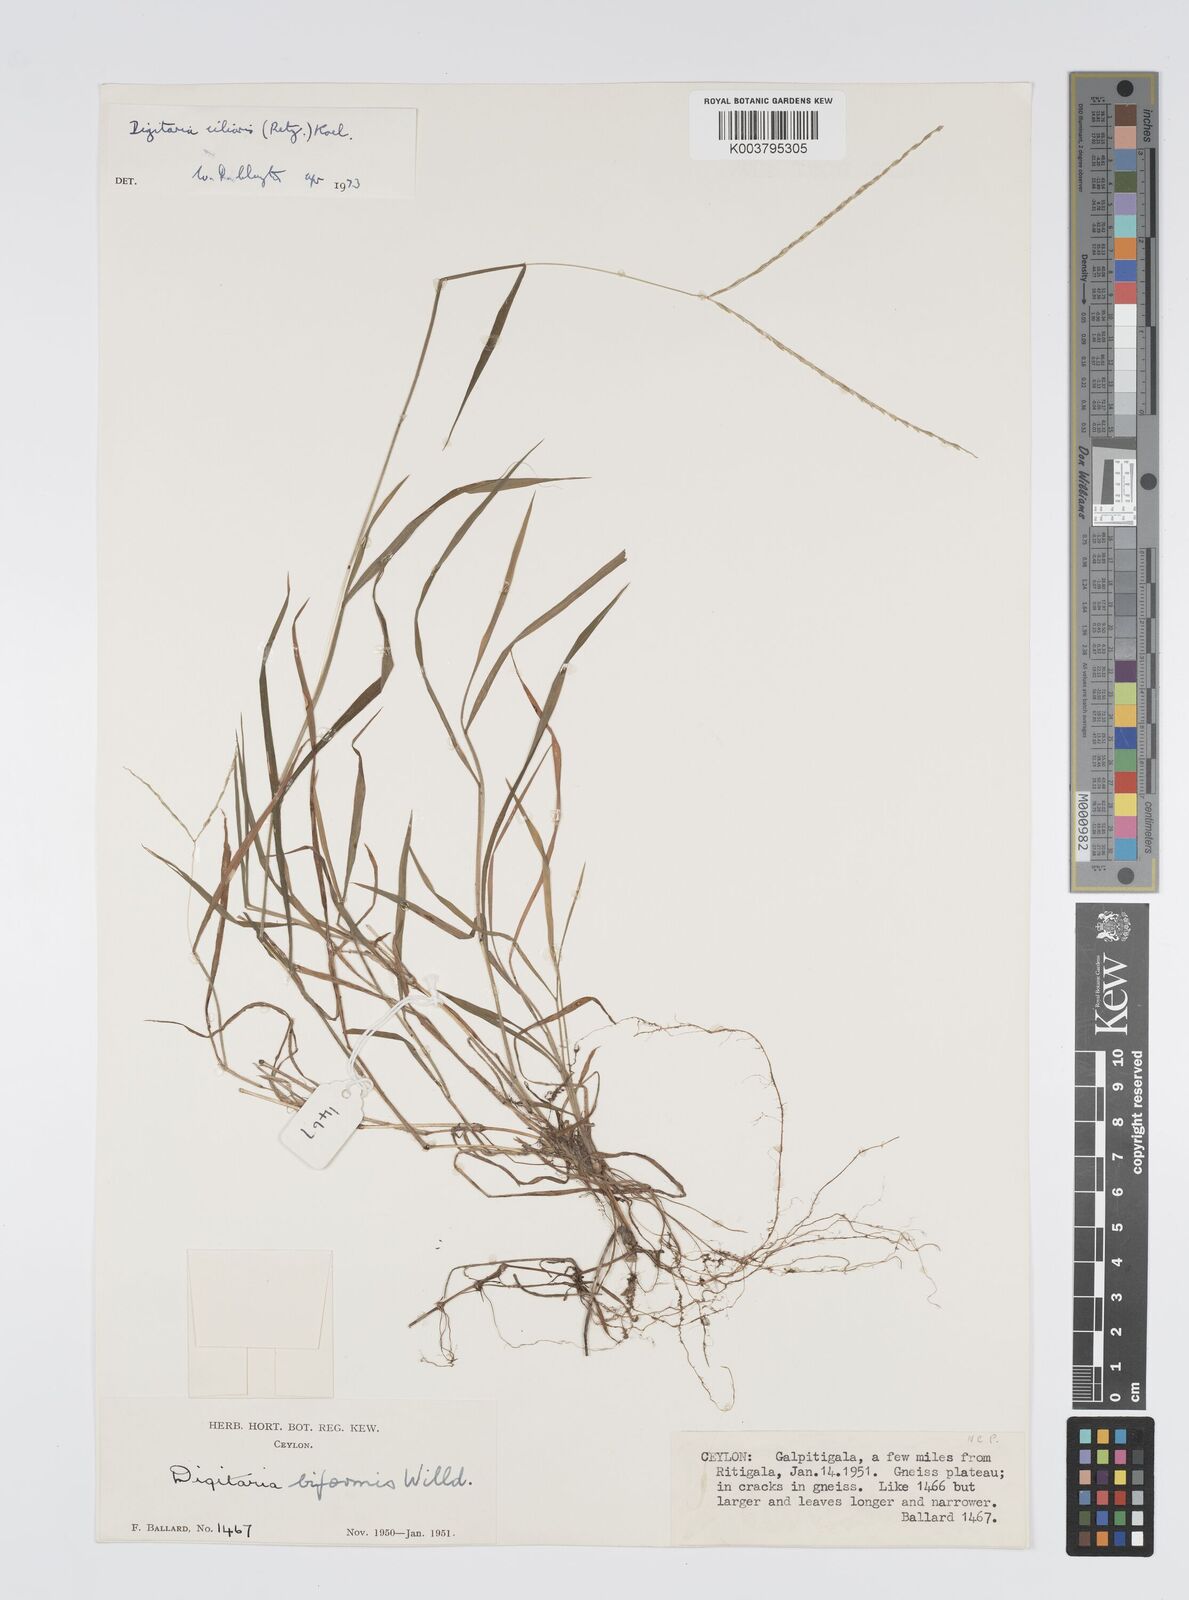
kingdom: Plantae
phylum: Tracheophyta
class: Liliopsida
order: Poales
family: Poaceae
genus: Digitaria
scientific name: Digitaria ciliaris
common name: Tropical finger-grass
